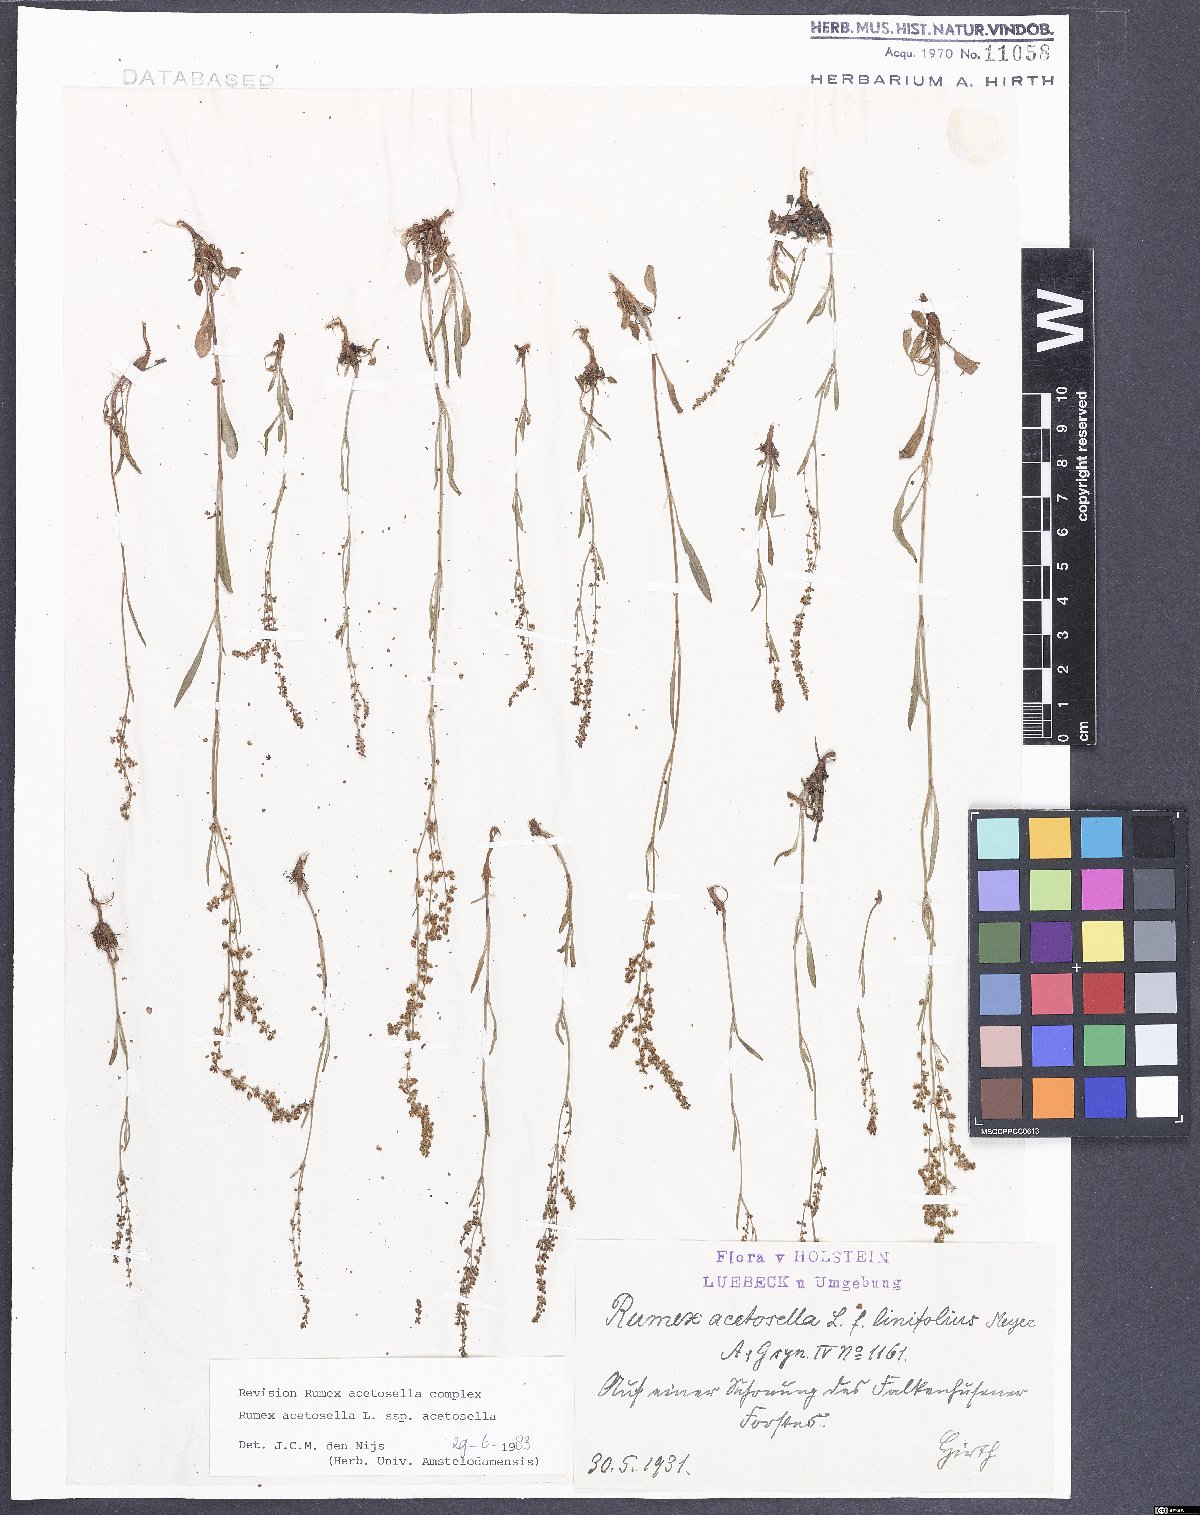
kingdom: Plantae
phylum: Tracheophyta
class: Magnoliopsida
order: Caryophyllales
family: Polygonaceae
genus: Rumex
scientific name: Rumex acetosella
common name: Common sheep sorrel
